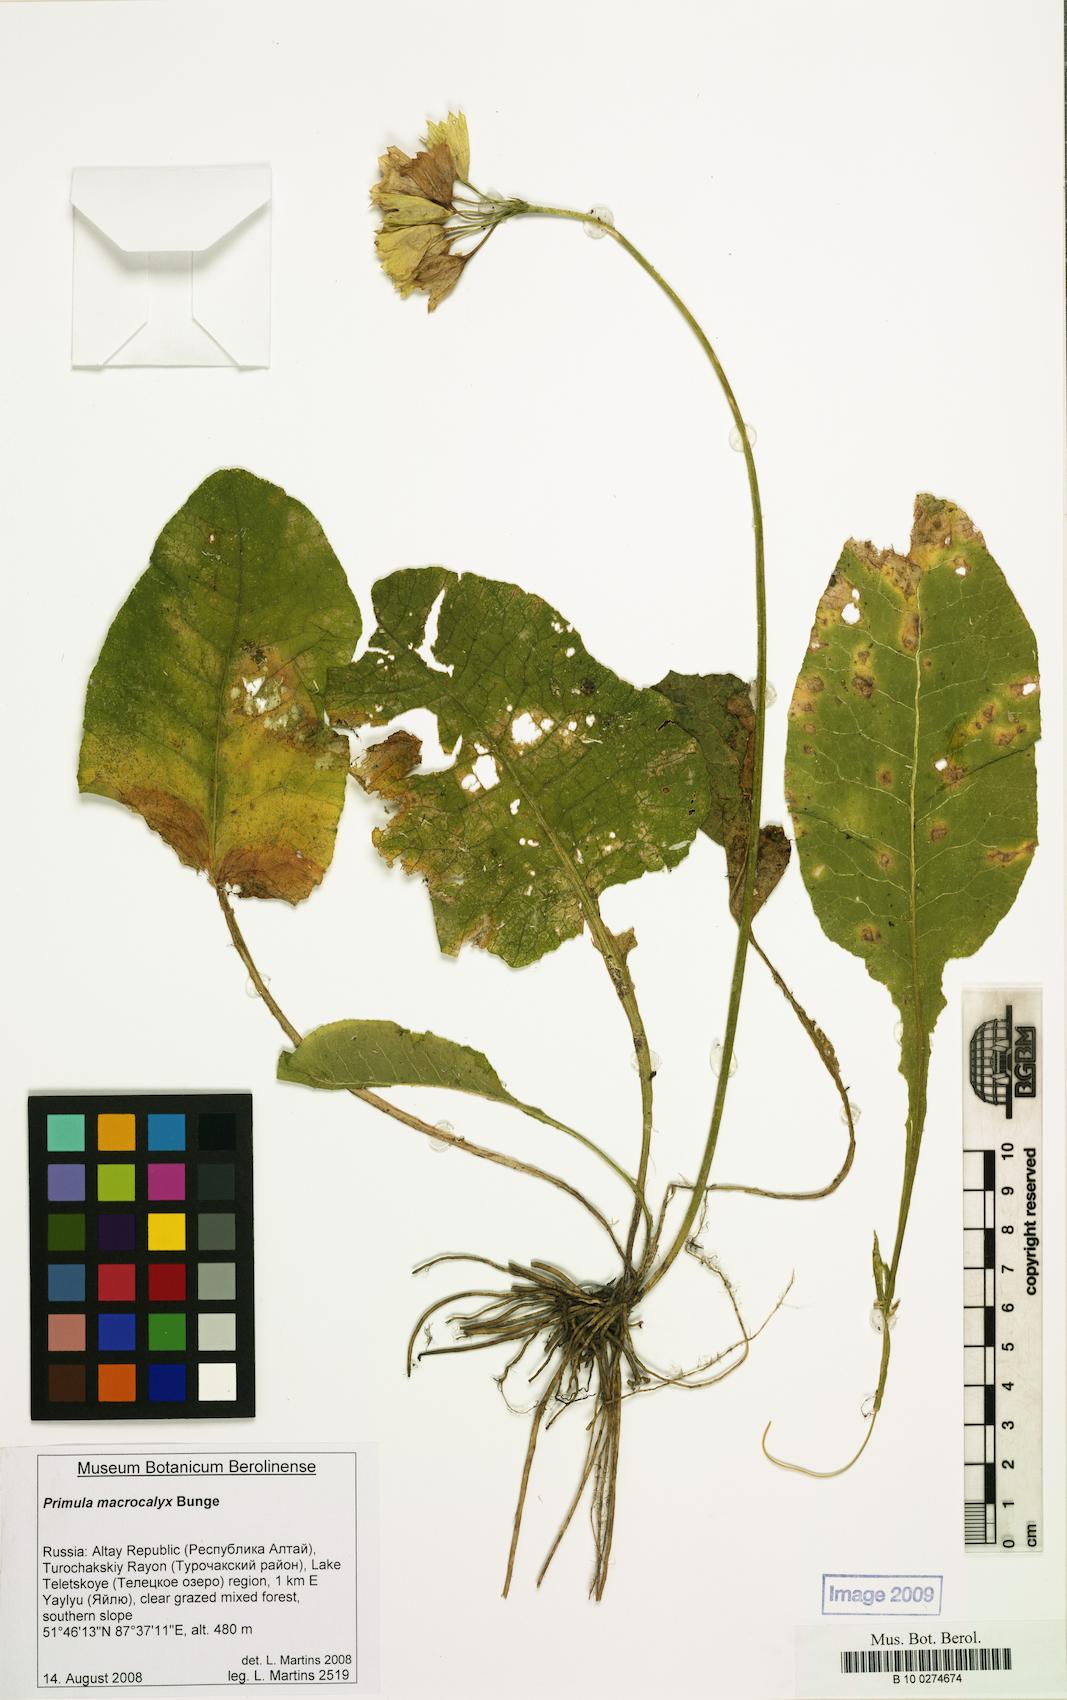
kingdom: Plantae
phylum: Tracheophyta
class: Magnoliopsida
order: Ericales
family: Primulaceae
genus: Primula
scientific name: Primula veris
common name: Cowslip
